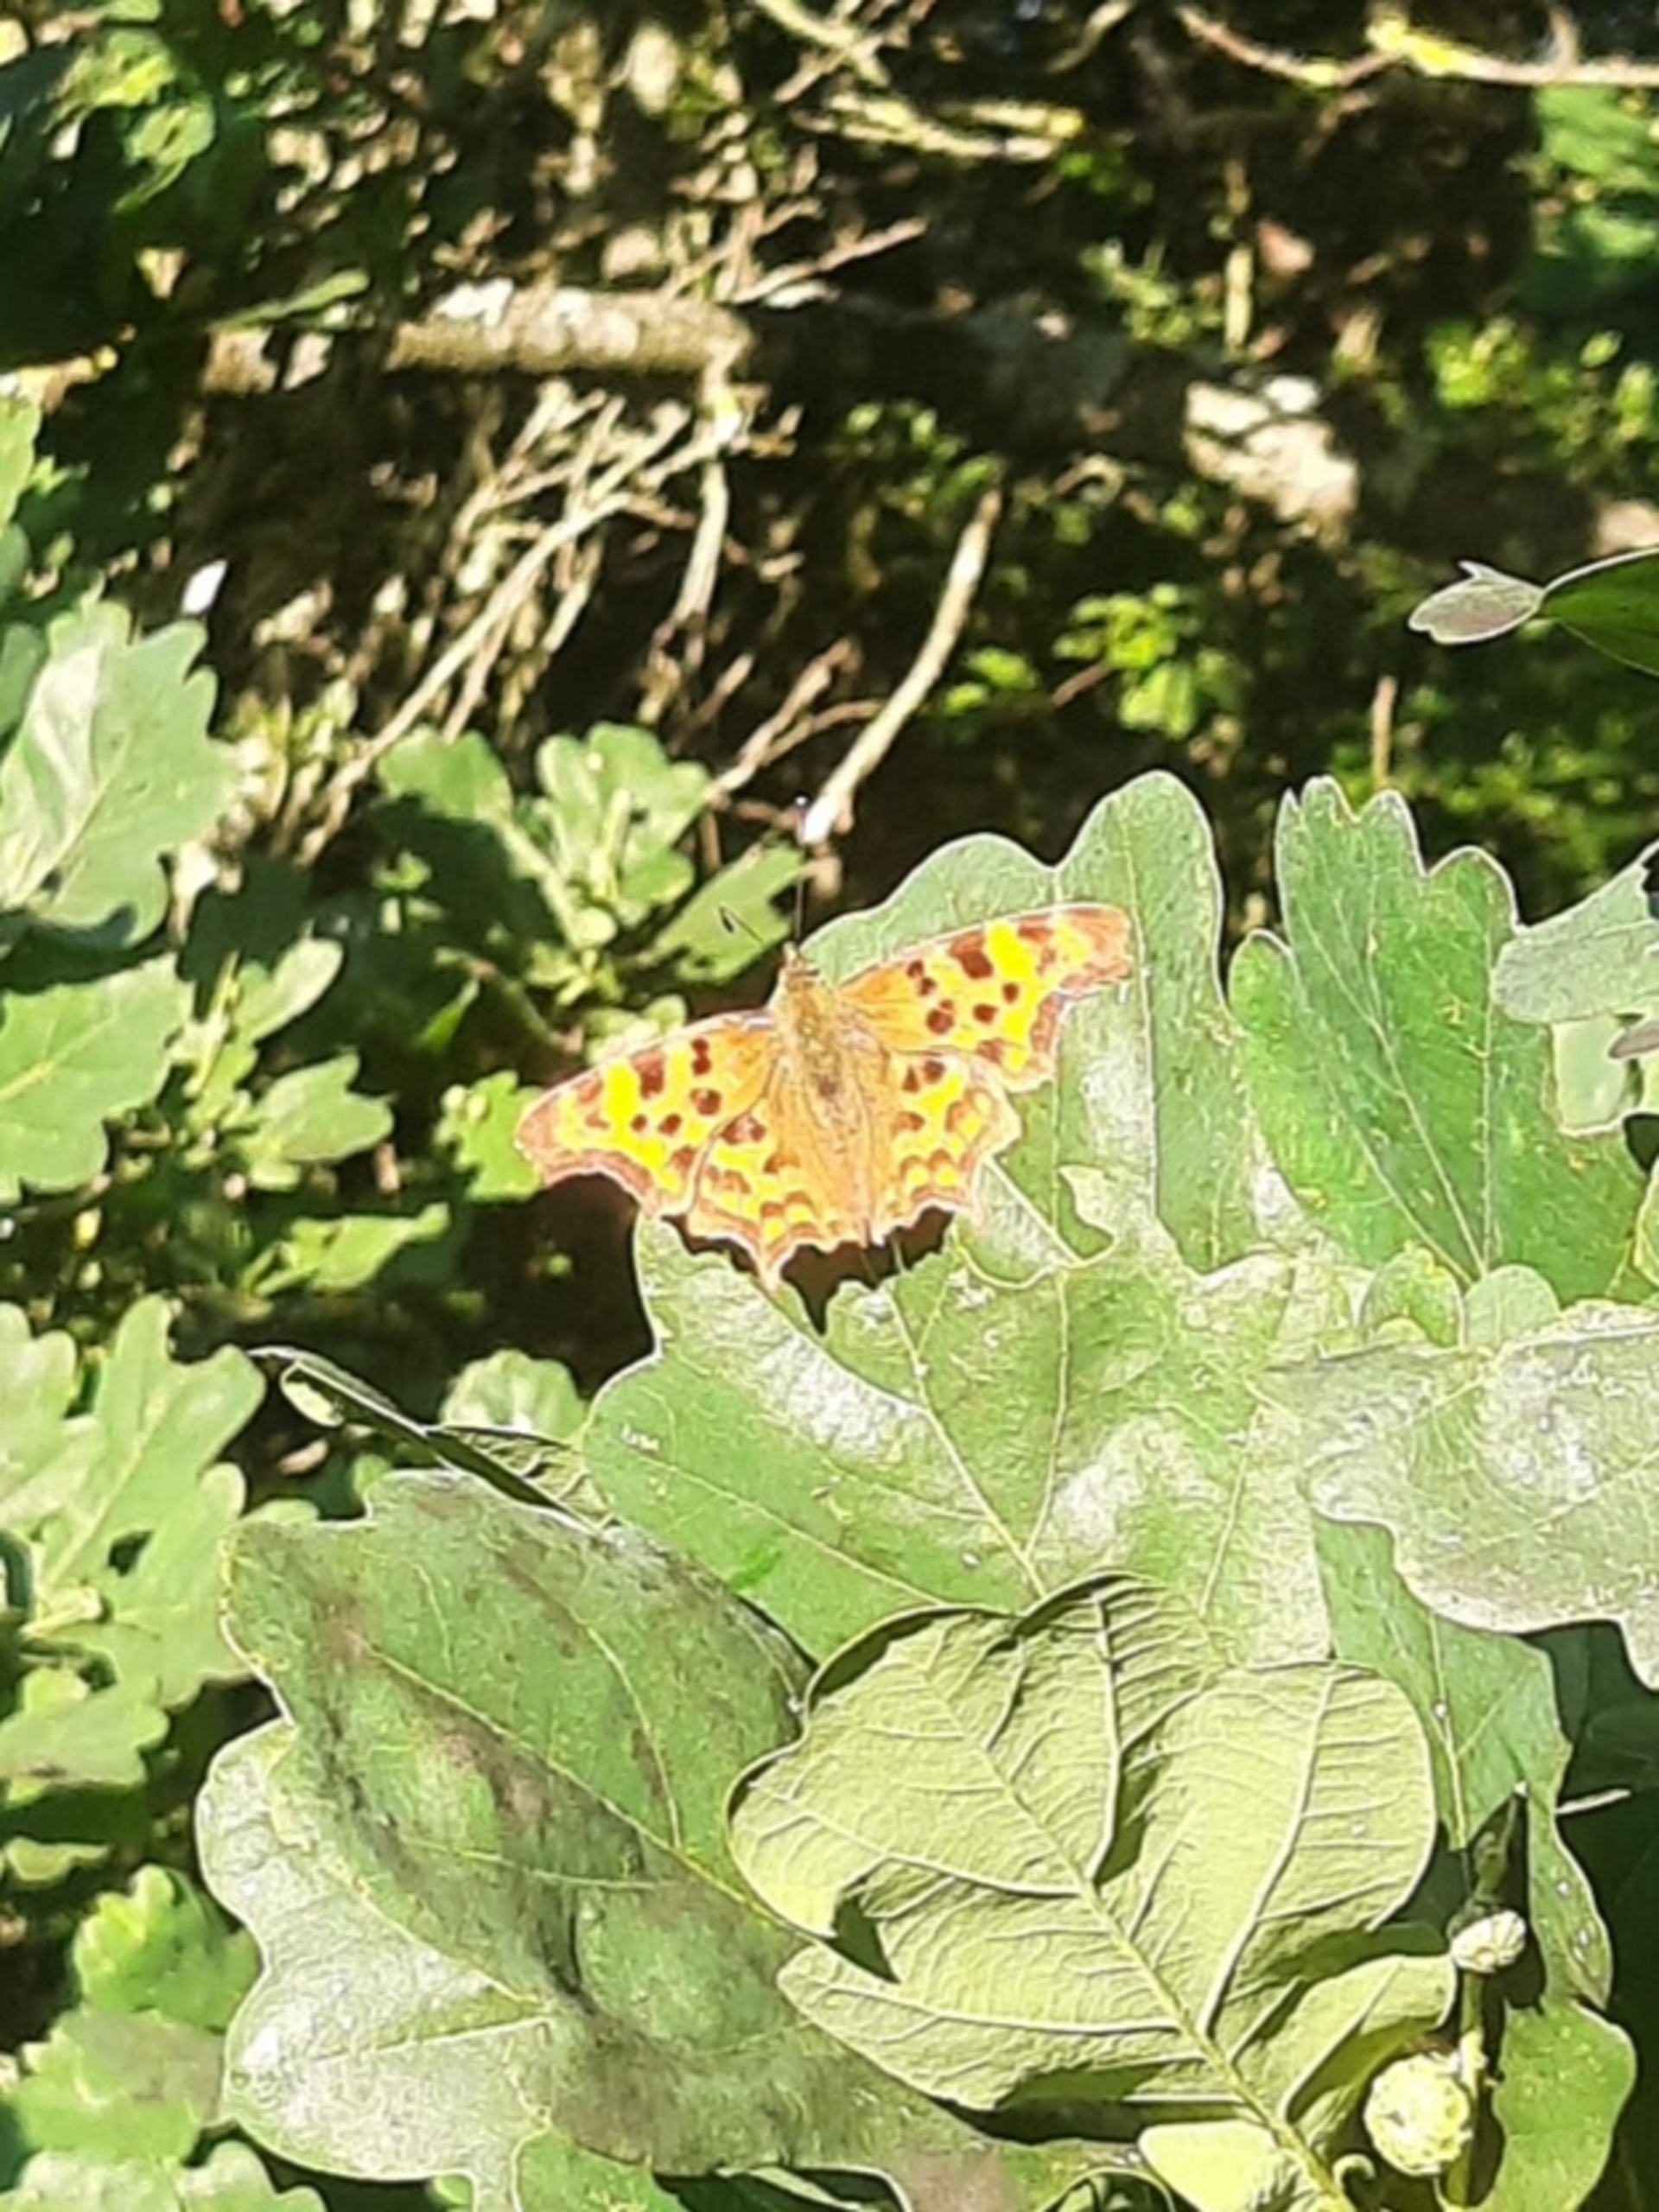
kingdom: Animalia
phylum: Arthropoda
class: Insecta
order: Lepidoptera
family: Nymphalidae
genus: Polygonia
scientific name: Polygonia c-album
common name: Det hvide C
